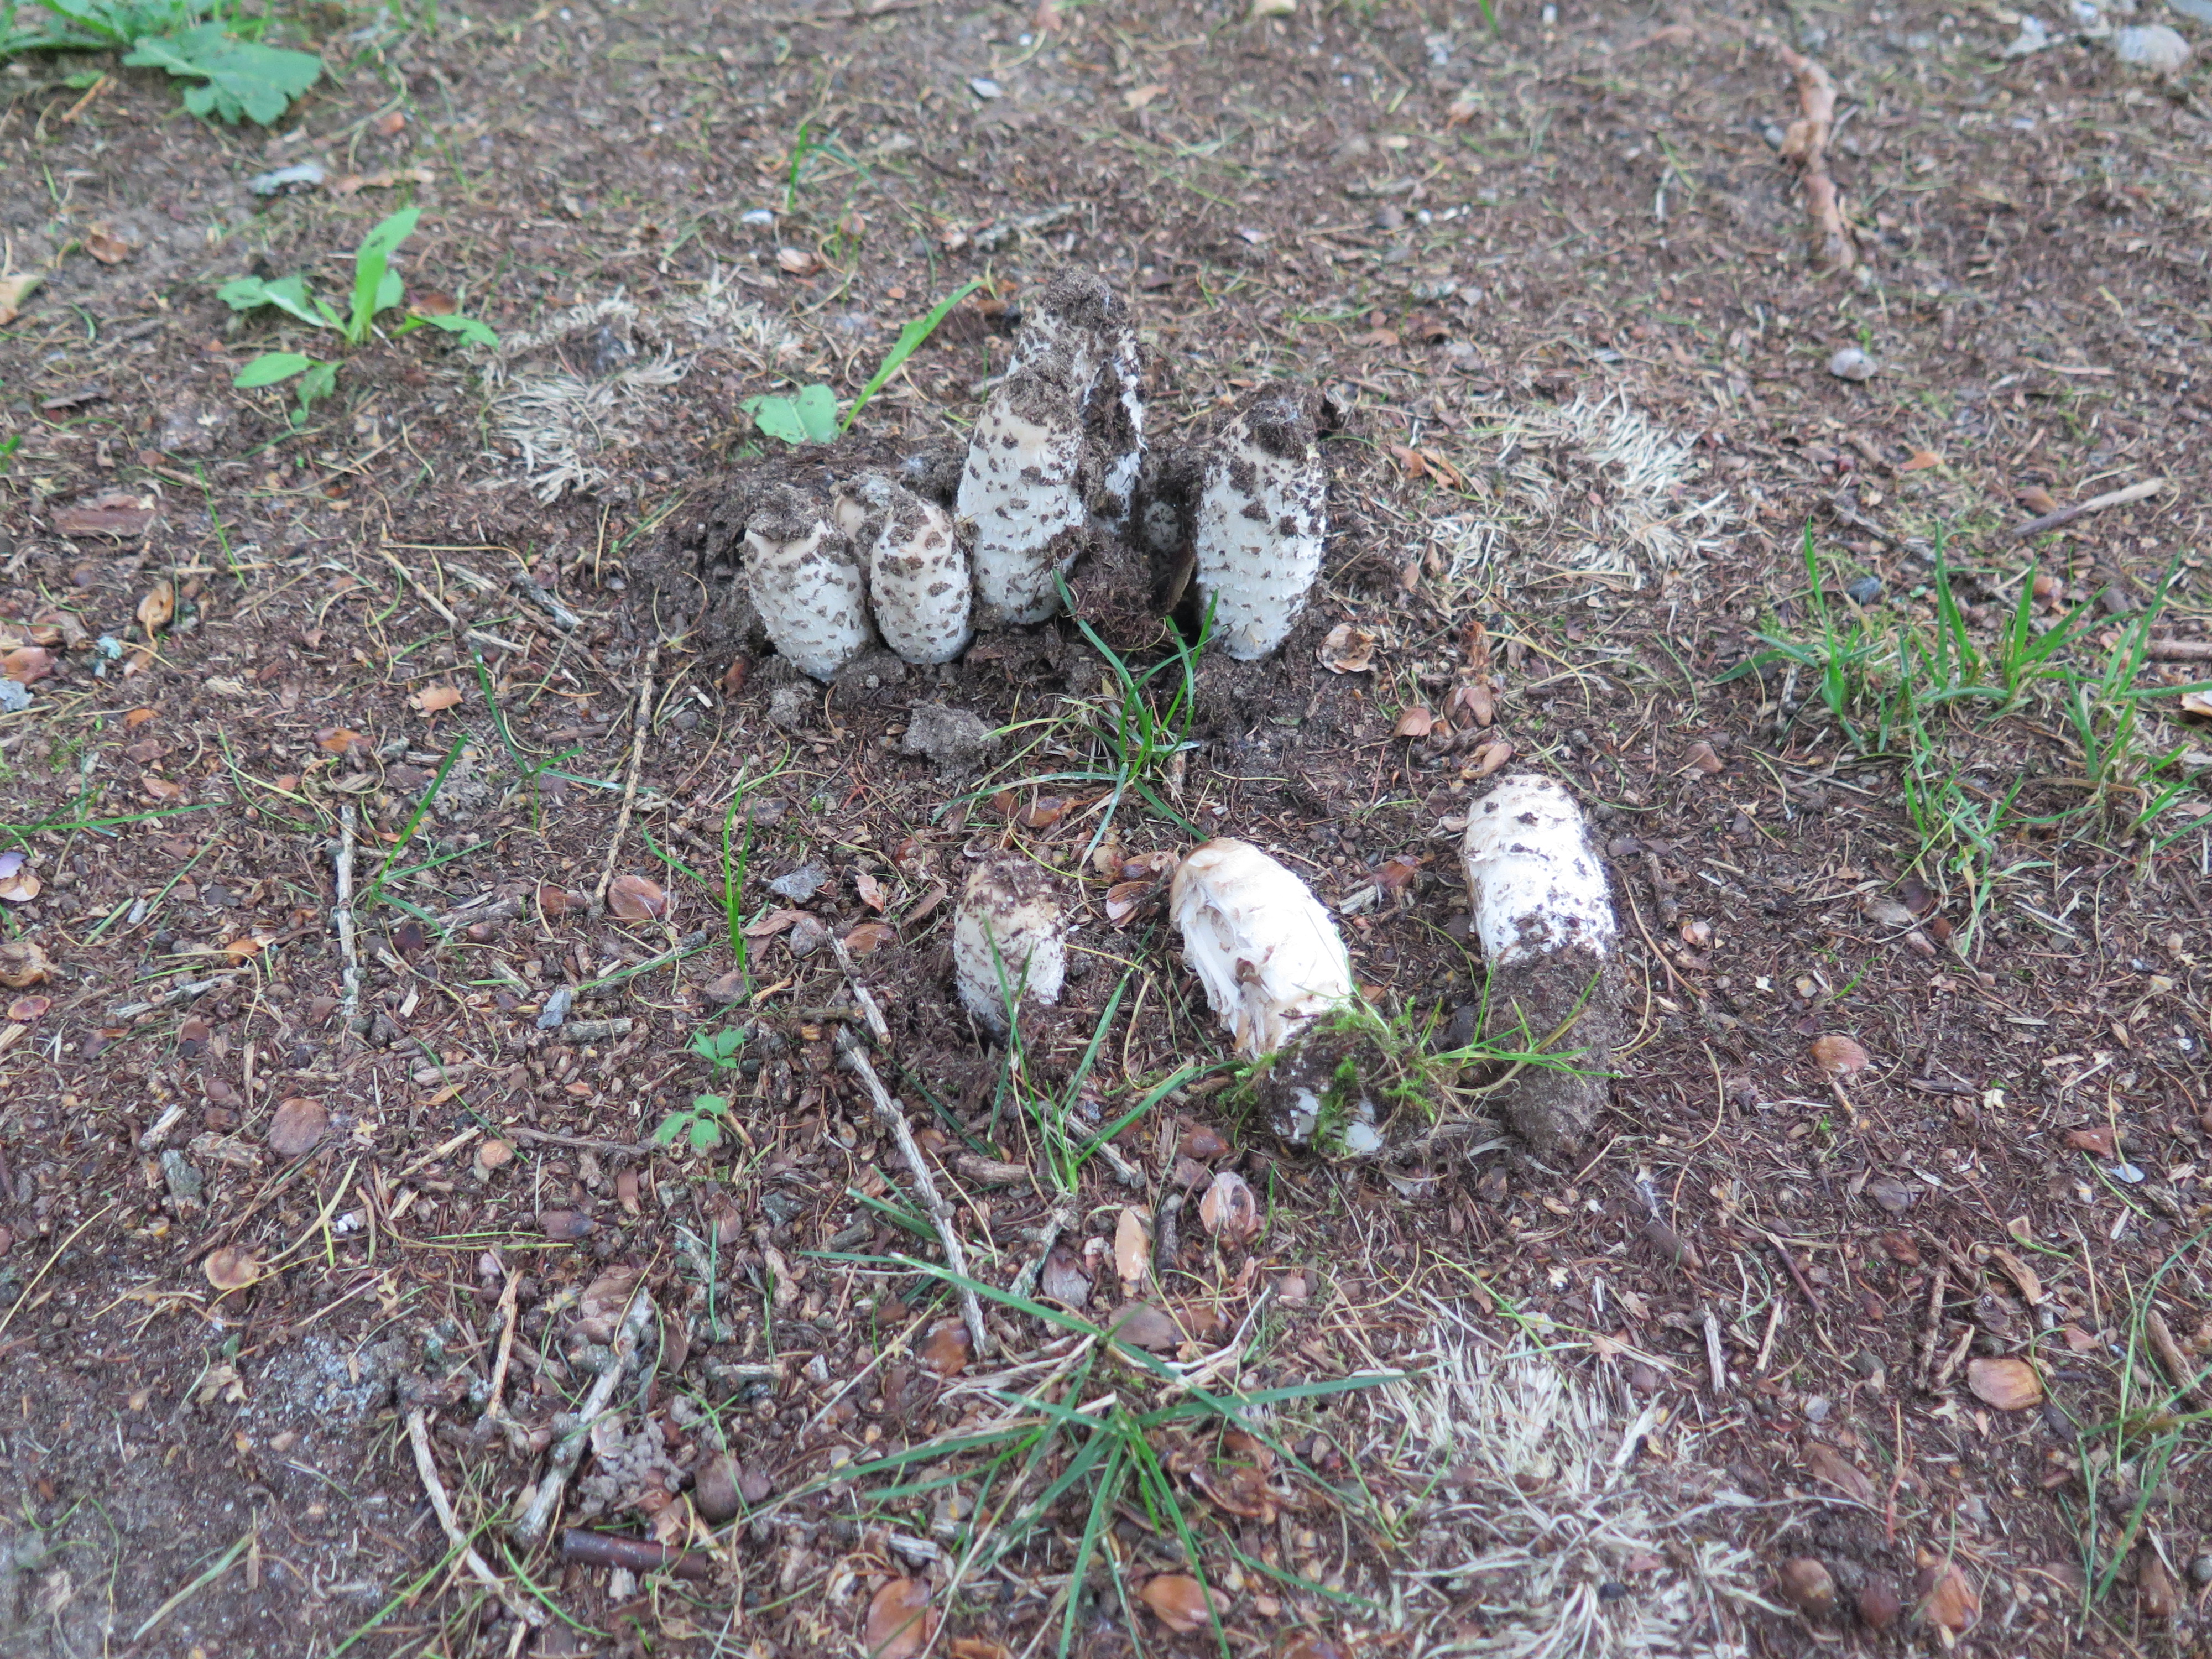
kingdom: Fungi
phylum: Basidiomycota
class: Agaricomycetes
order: Agaricales
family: Agaricaceae
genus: Coprinus
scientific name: Coprinus comatus
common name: Lawyer's wig
